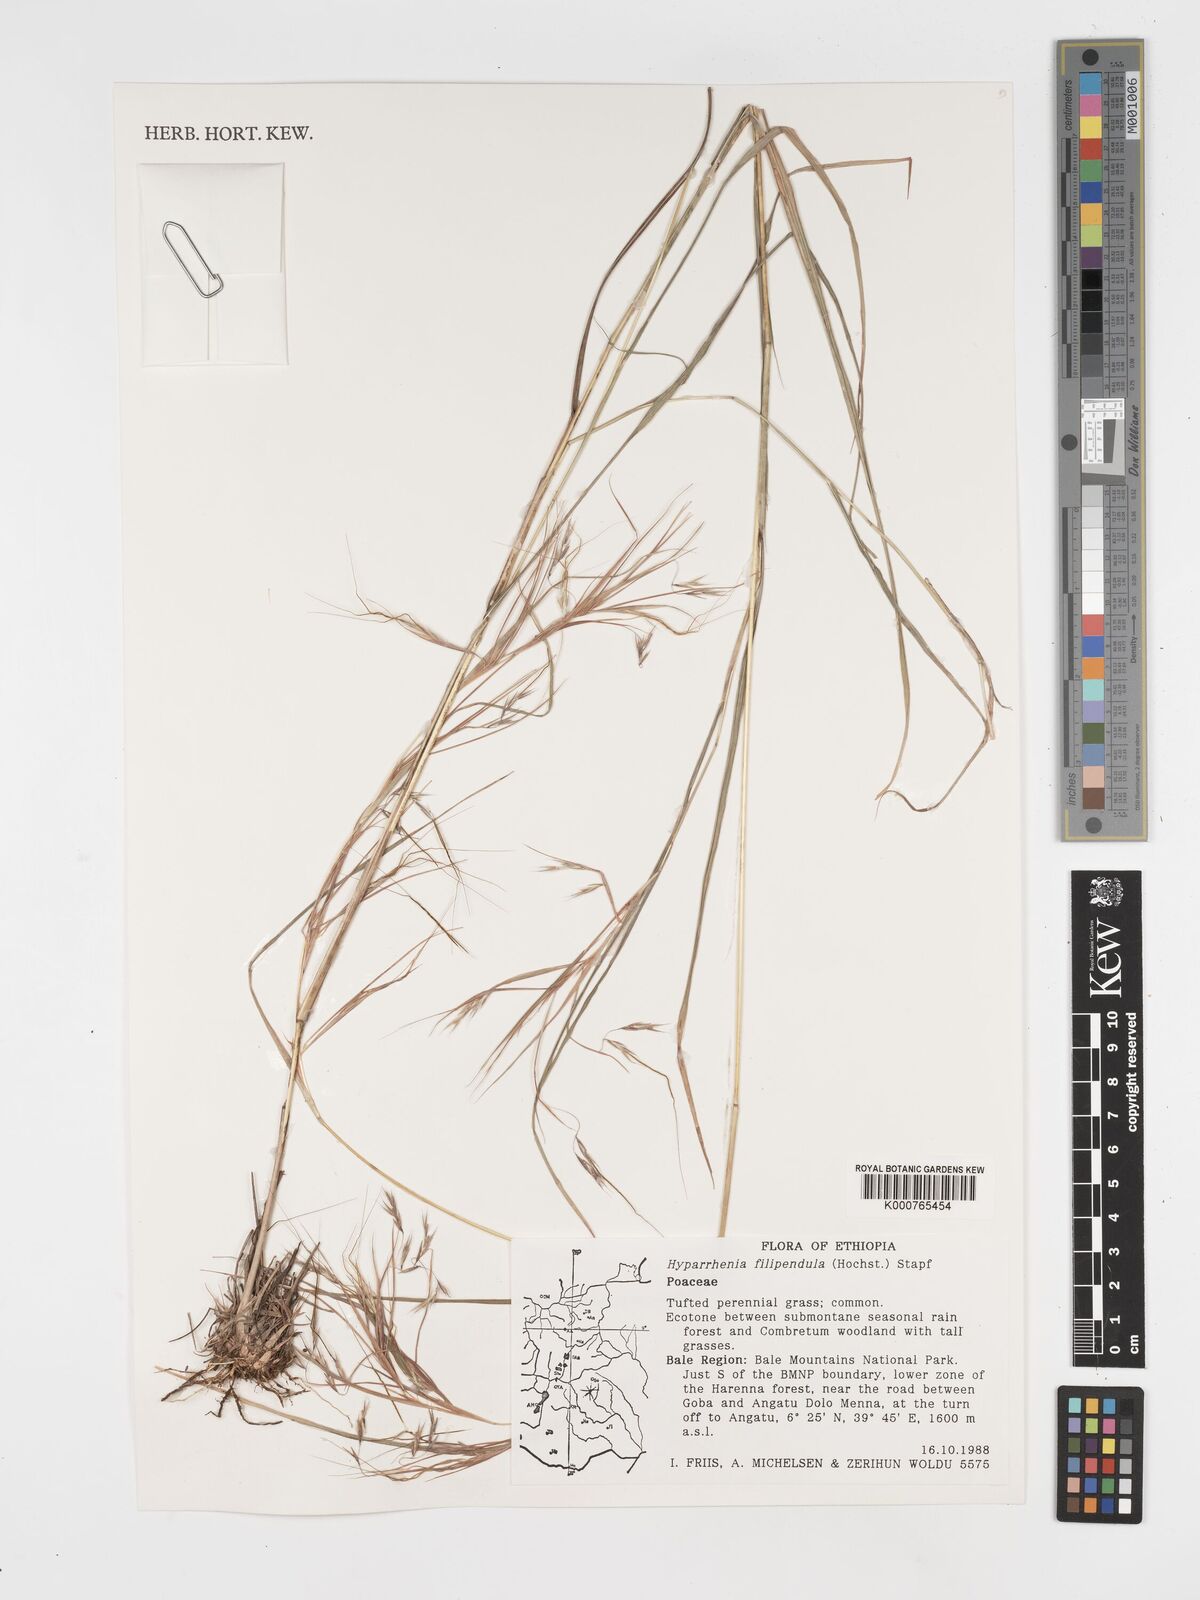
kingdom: Plantae
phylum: Tracheophyta
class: Liliopsida
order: Poales
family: Poaceae
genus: Hyparrhenia
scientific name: Hyparrhenia filipendula
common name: Tambookie grass
